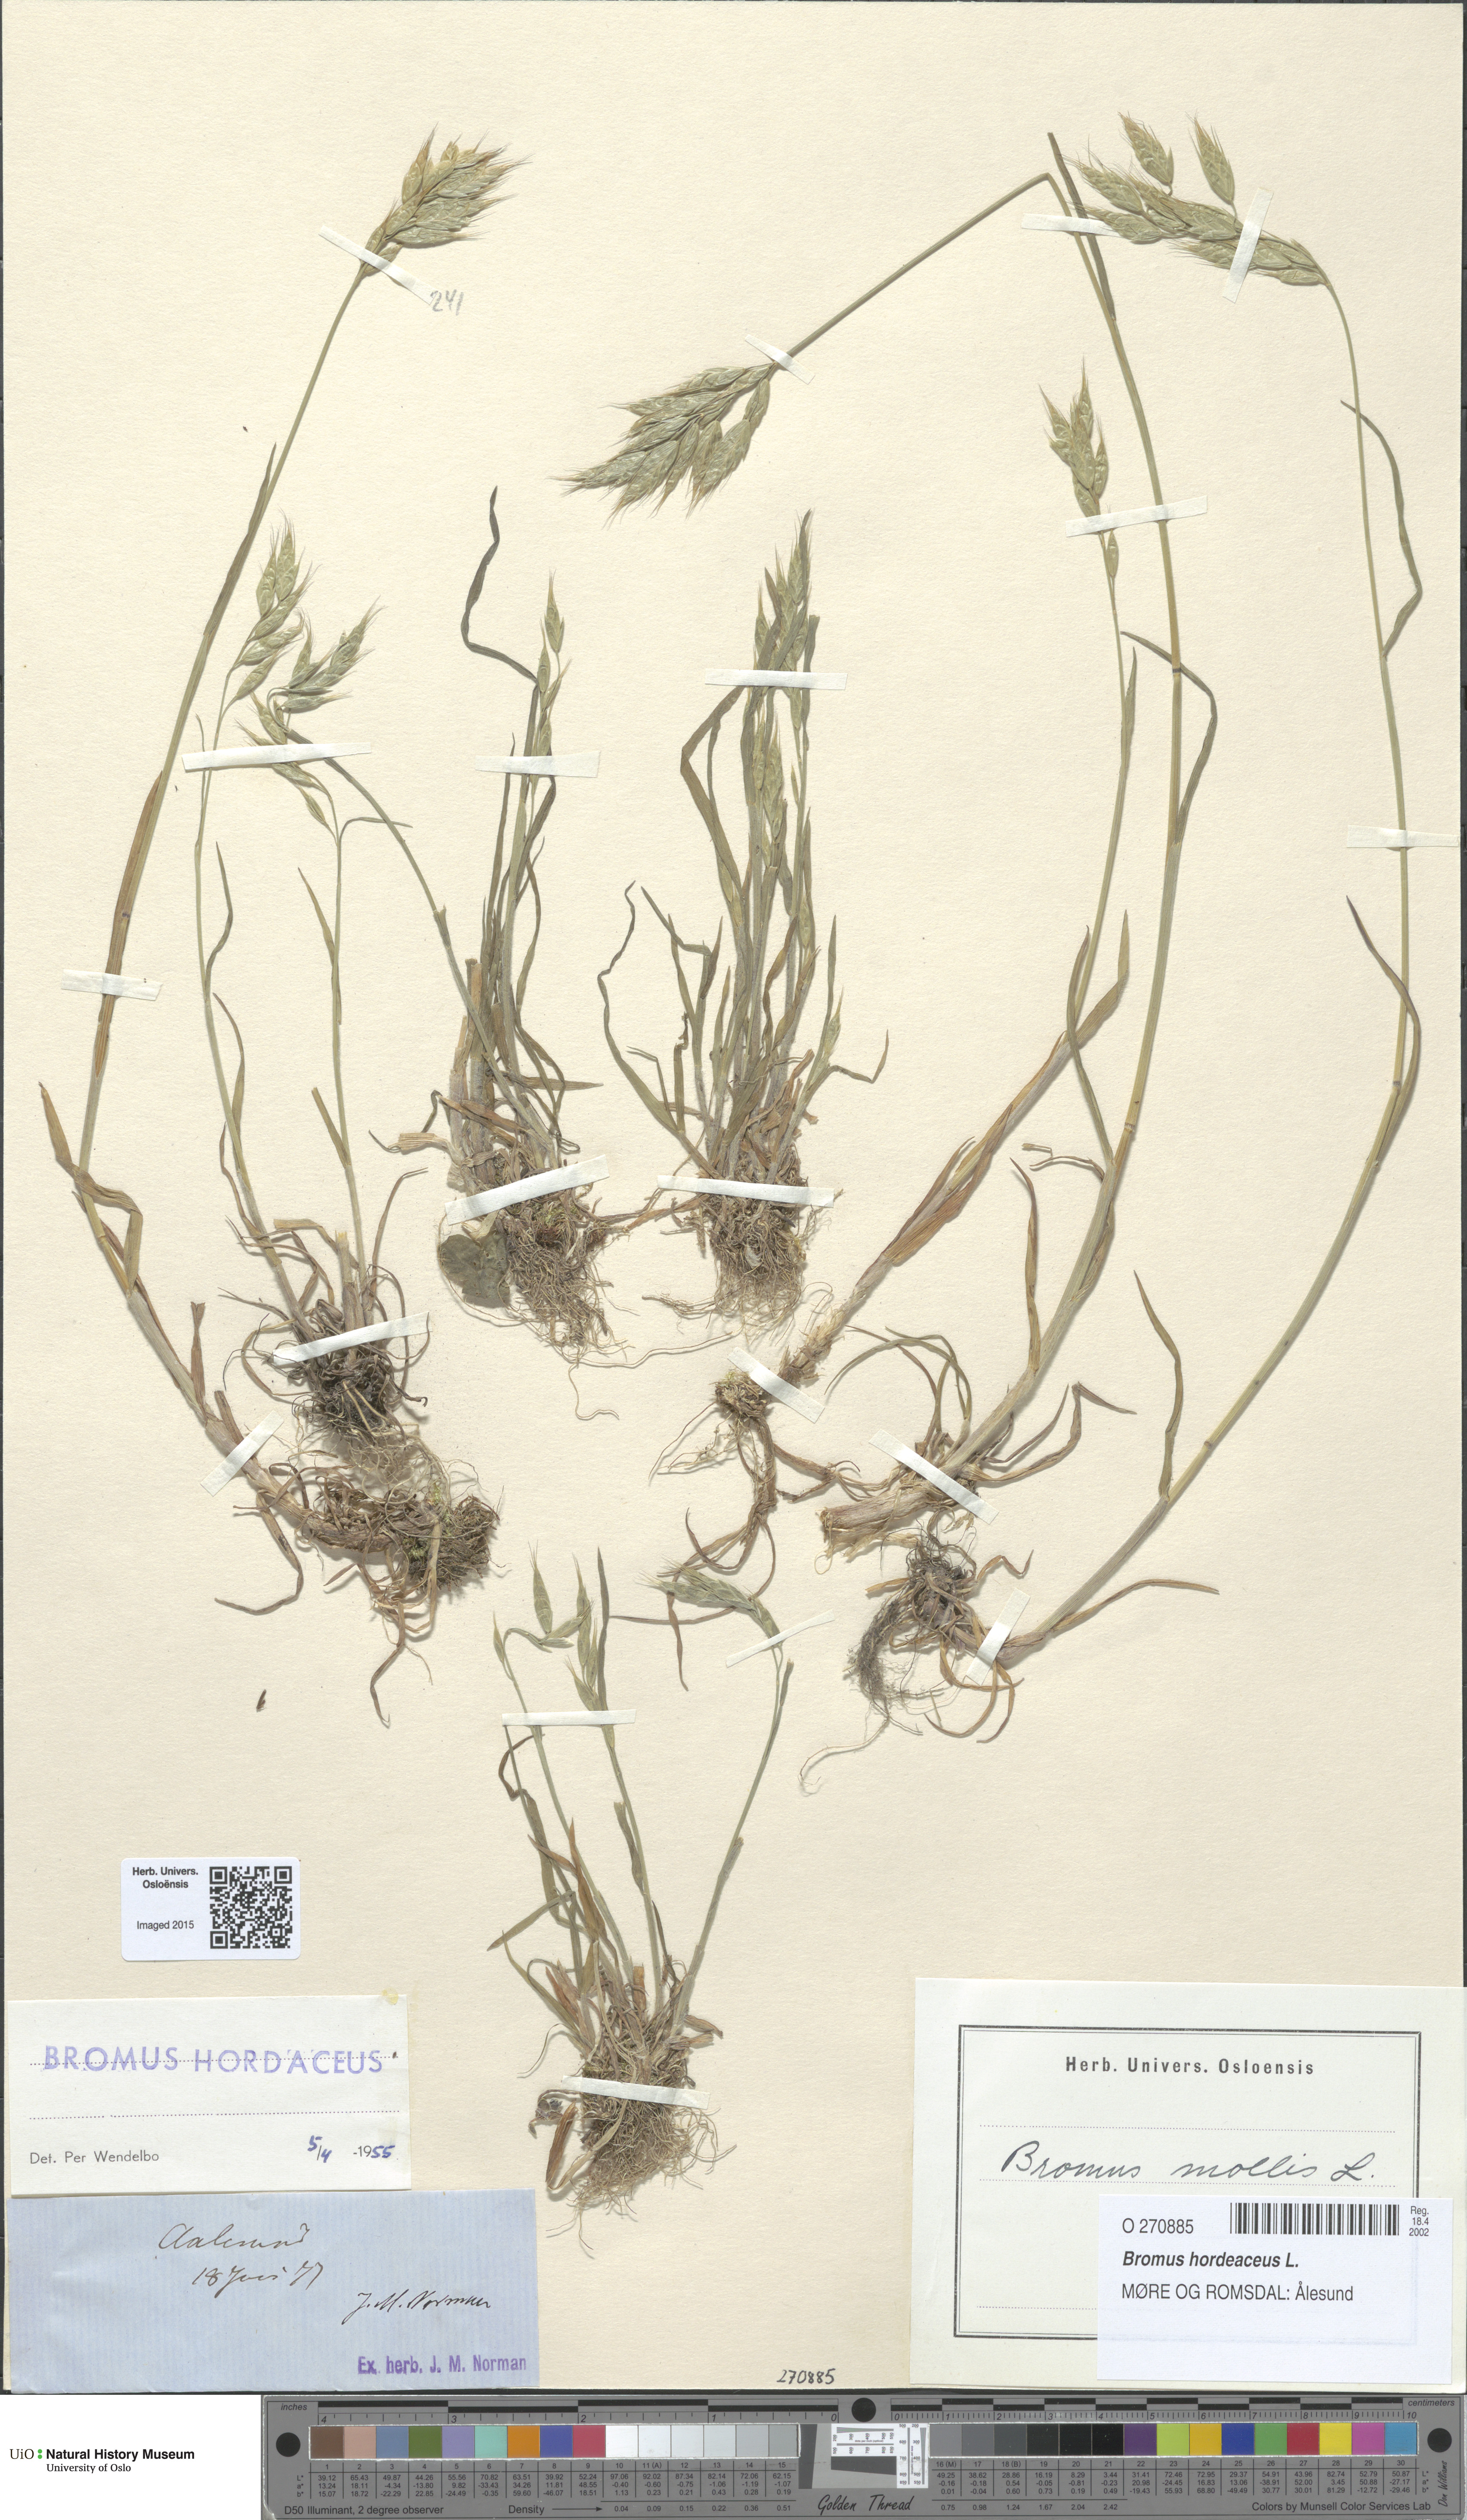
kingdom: Plantae
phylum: Tracheophyta
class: Liliopsida
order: Poales
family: Poaceae
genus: Bromus
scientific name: Bromus hordeaceus
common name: Soft brome
